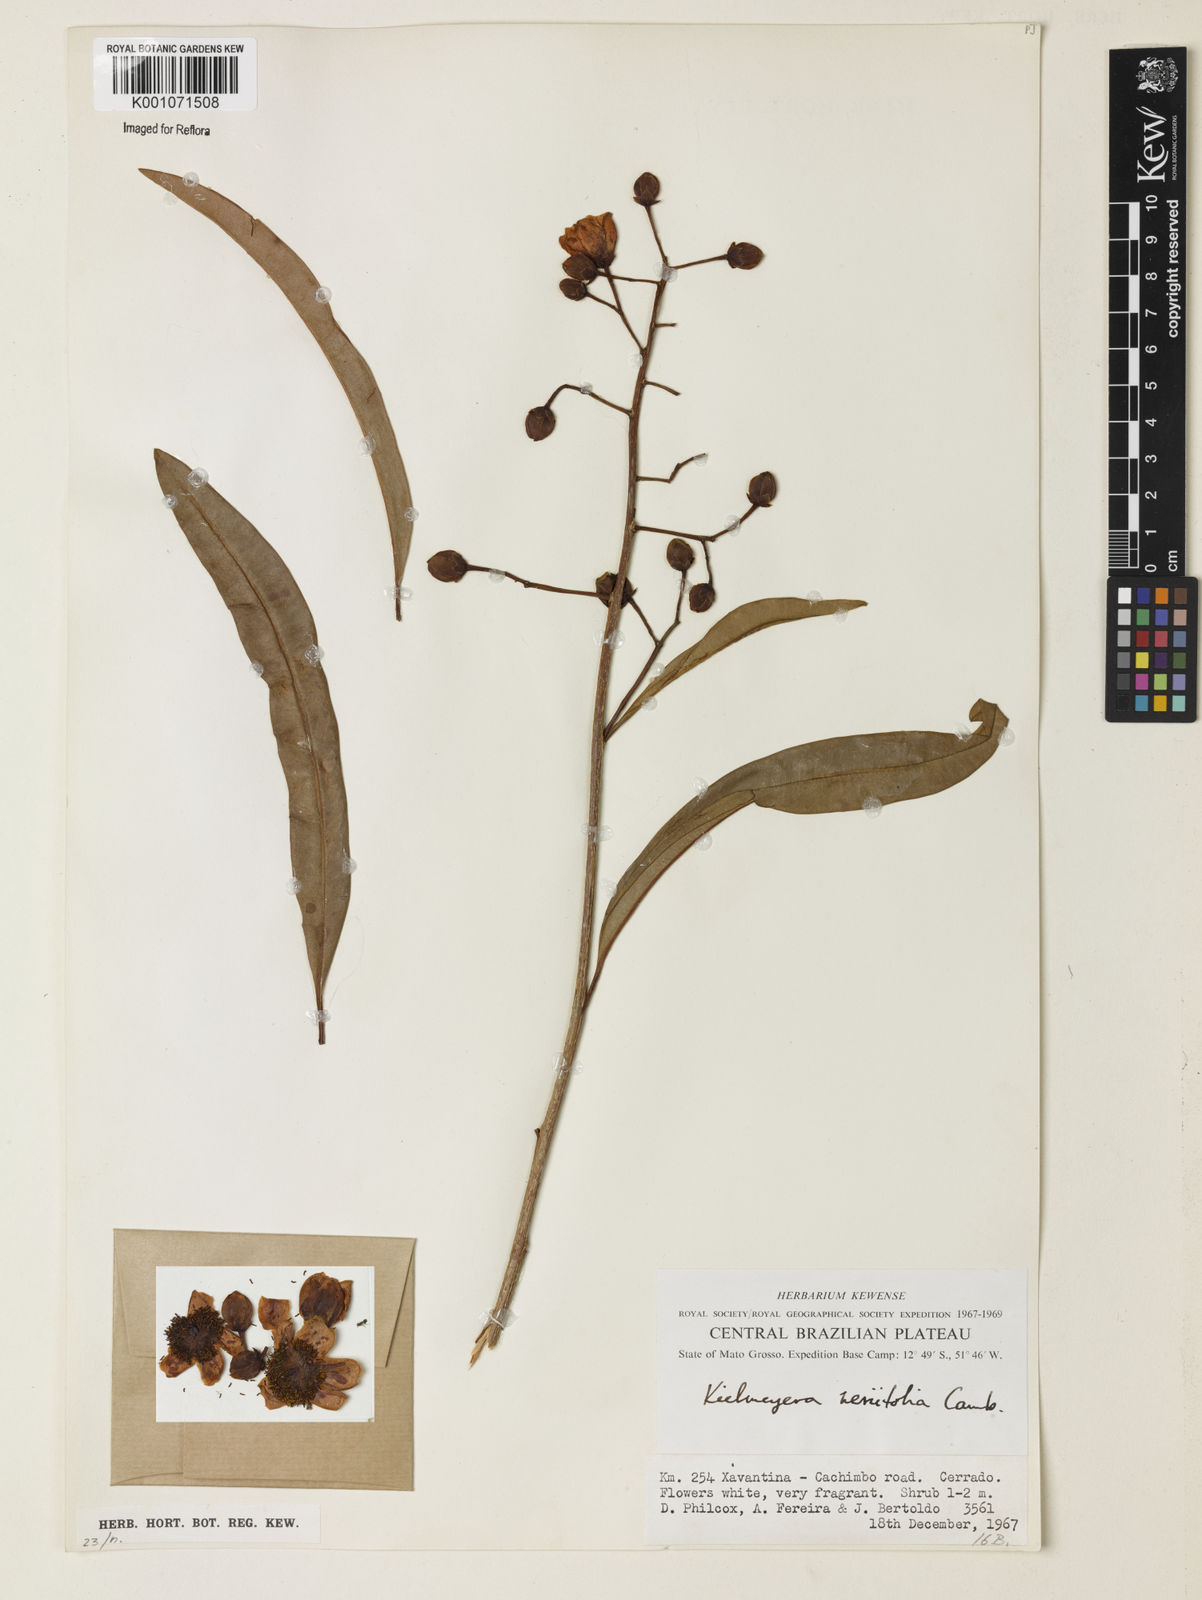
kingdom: Plantae
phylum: Tracheophyta
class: Magnoliopsida
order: Malpighiales
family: Calophyllaceae
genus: Kielmeyera
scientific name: Kielmeyera abdita
